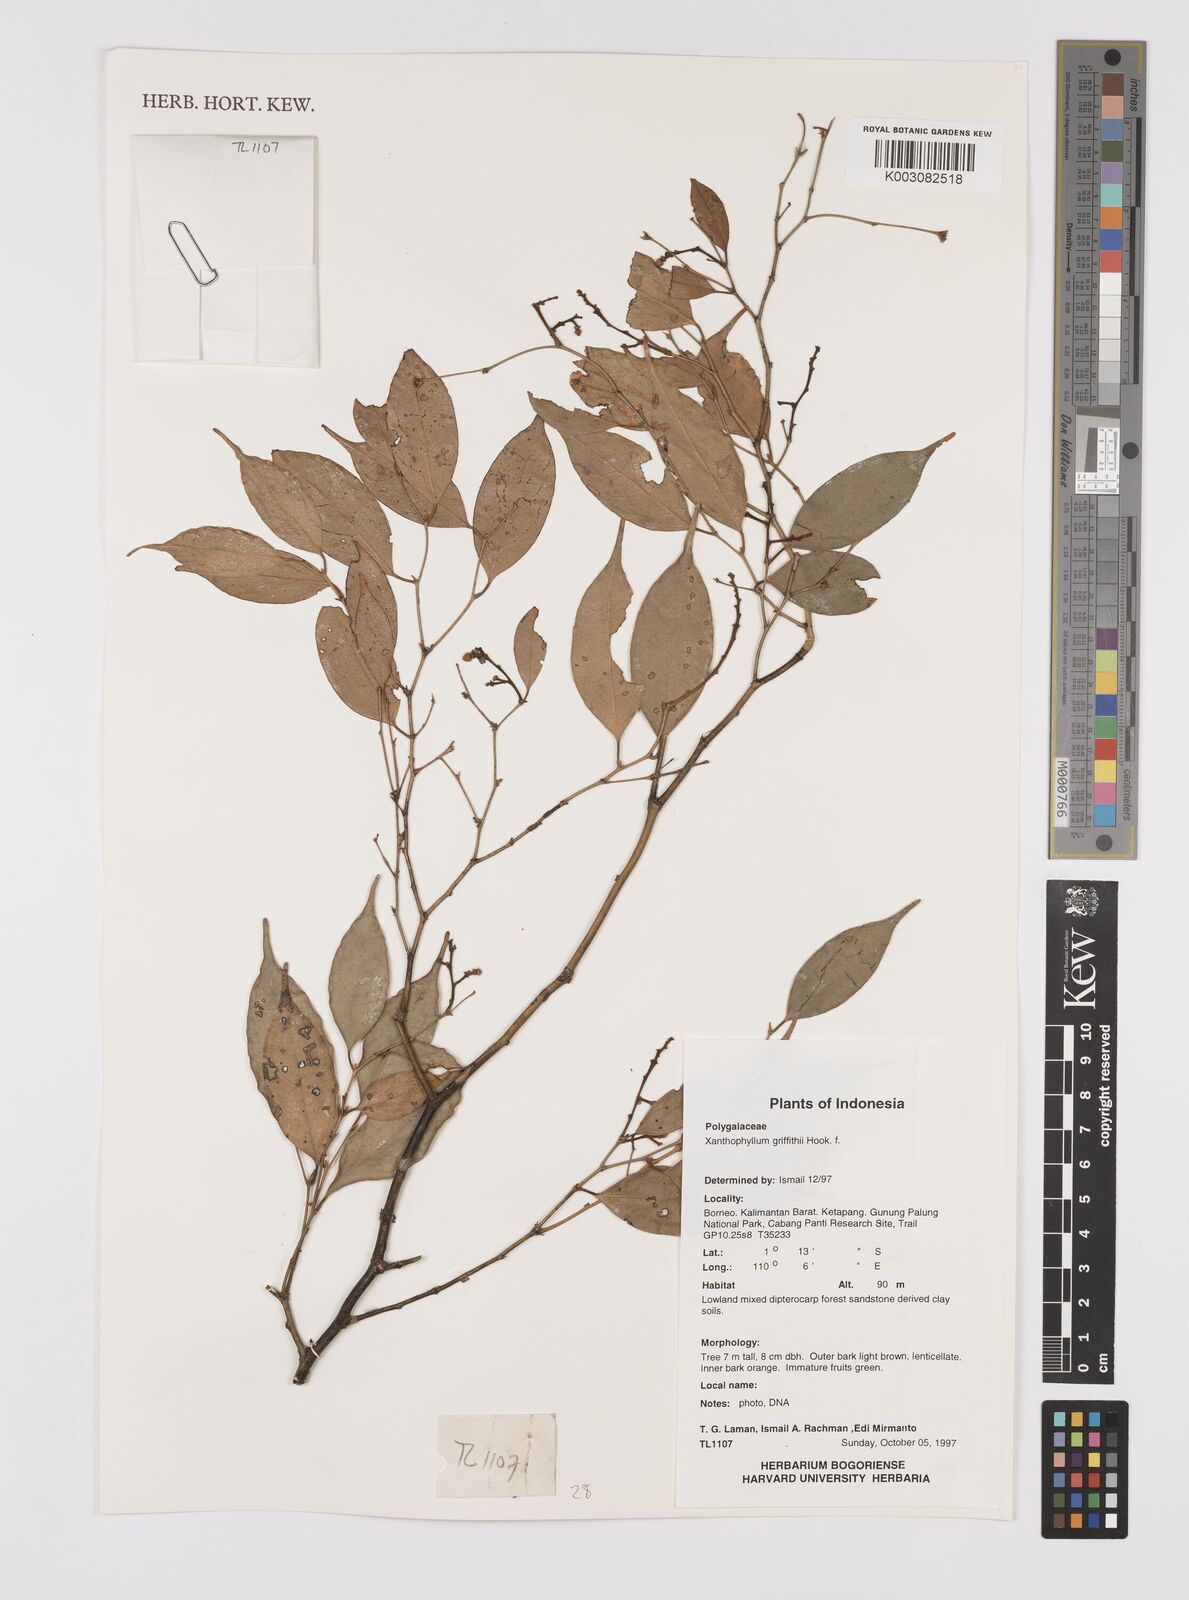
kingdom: Plantae
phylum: Tracheophyta
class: Magnoliopsida
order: Fabales
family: Polygalaceae
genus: Xanthophyllum
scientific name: Xanthophyllum griffithii
